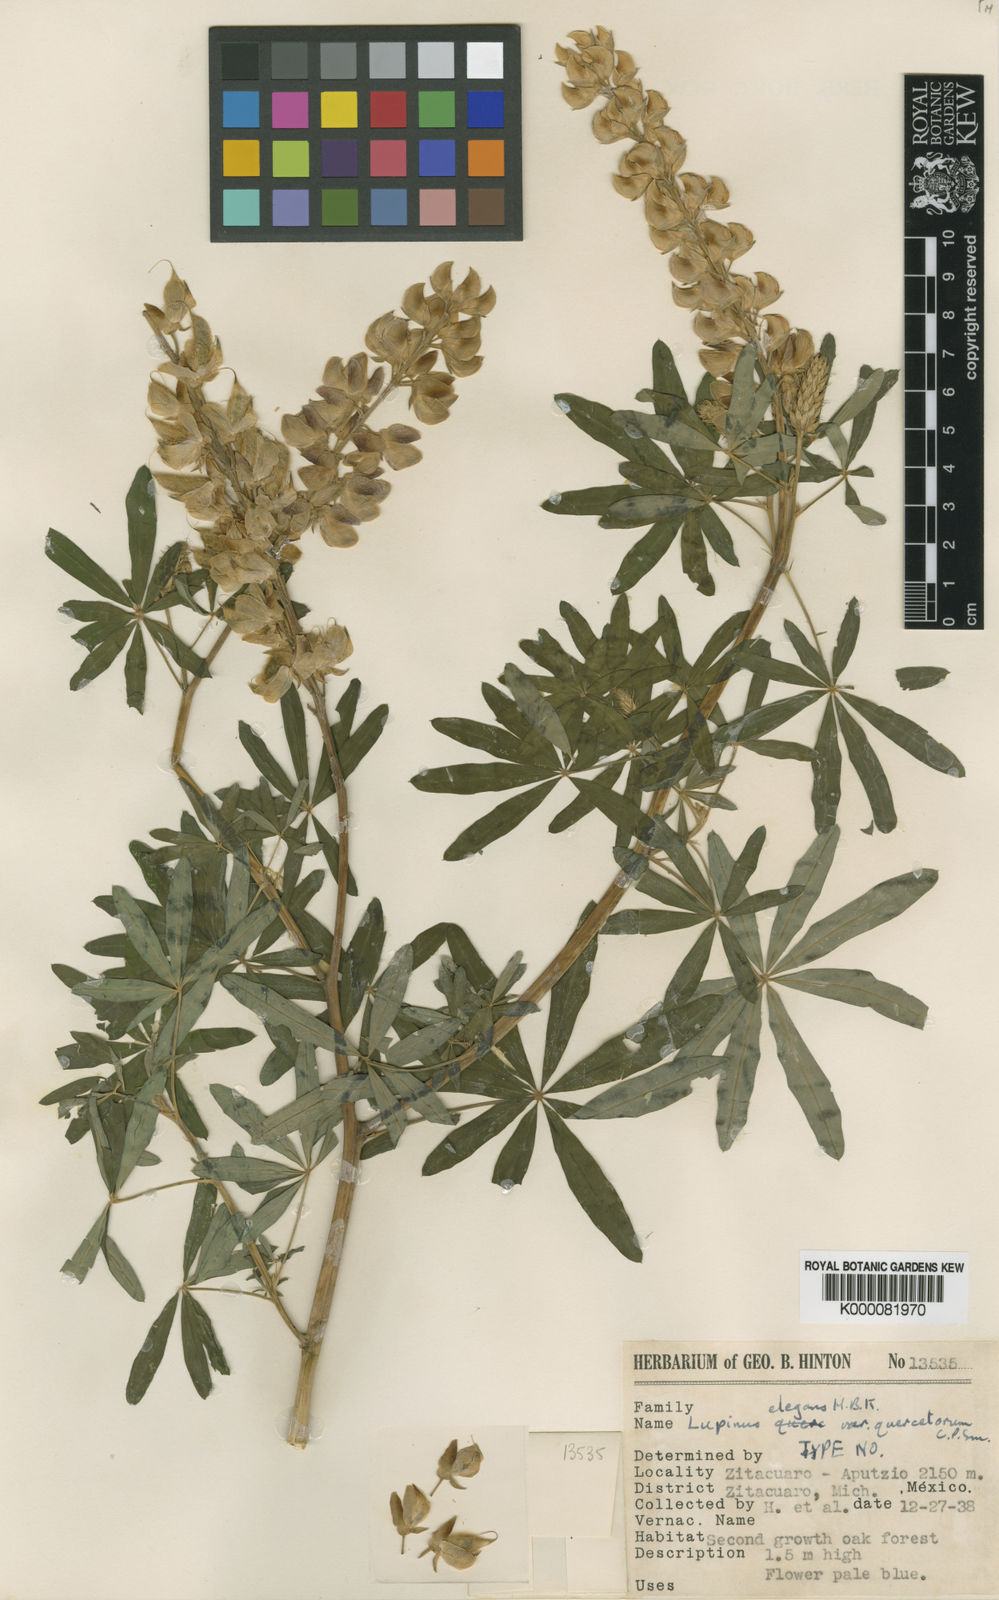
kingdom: Plantae
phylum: Tracheophyta
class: Magnoliopsida
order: Fabales
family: Fabaceae
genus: Lupinus
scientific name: Lupinus elegans
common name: Mexican lupine
